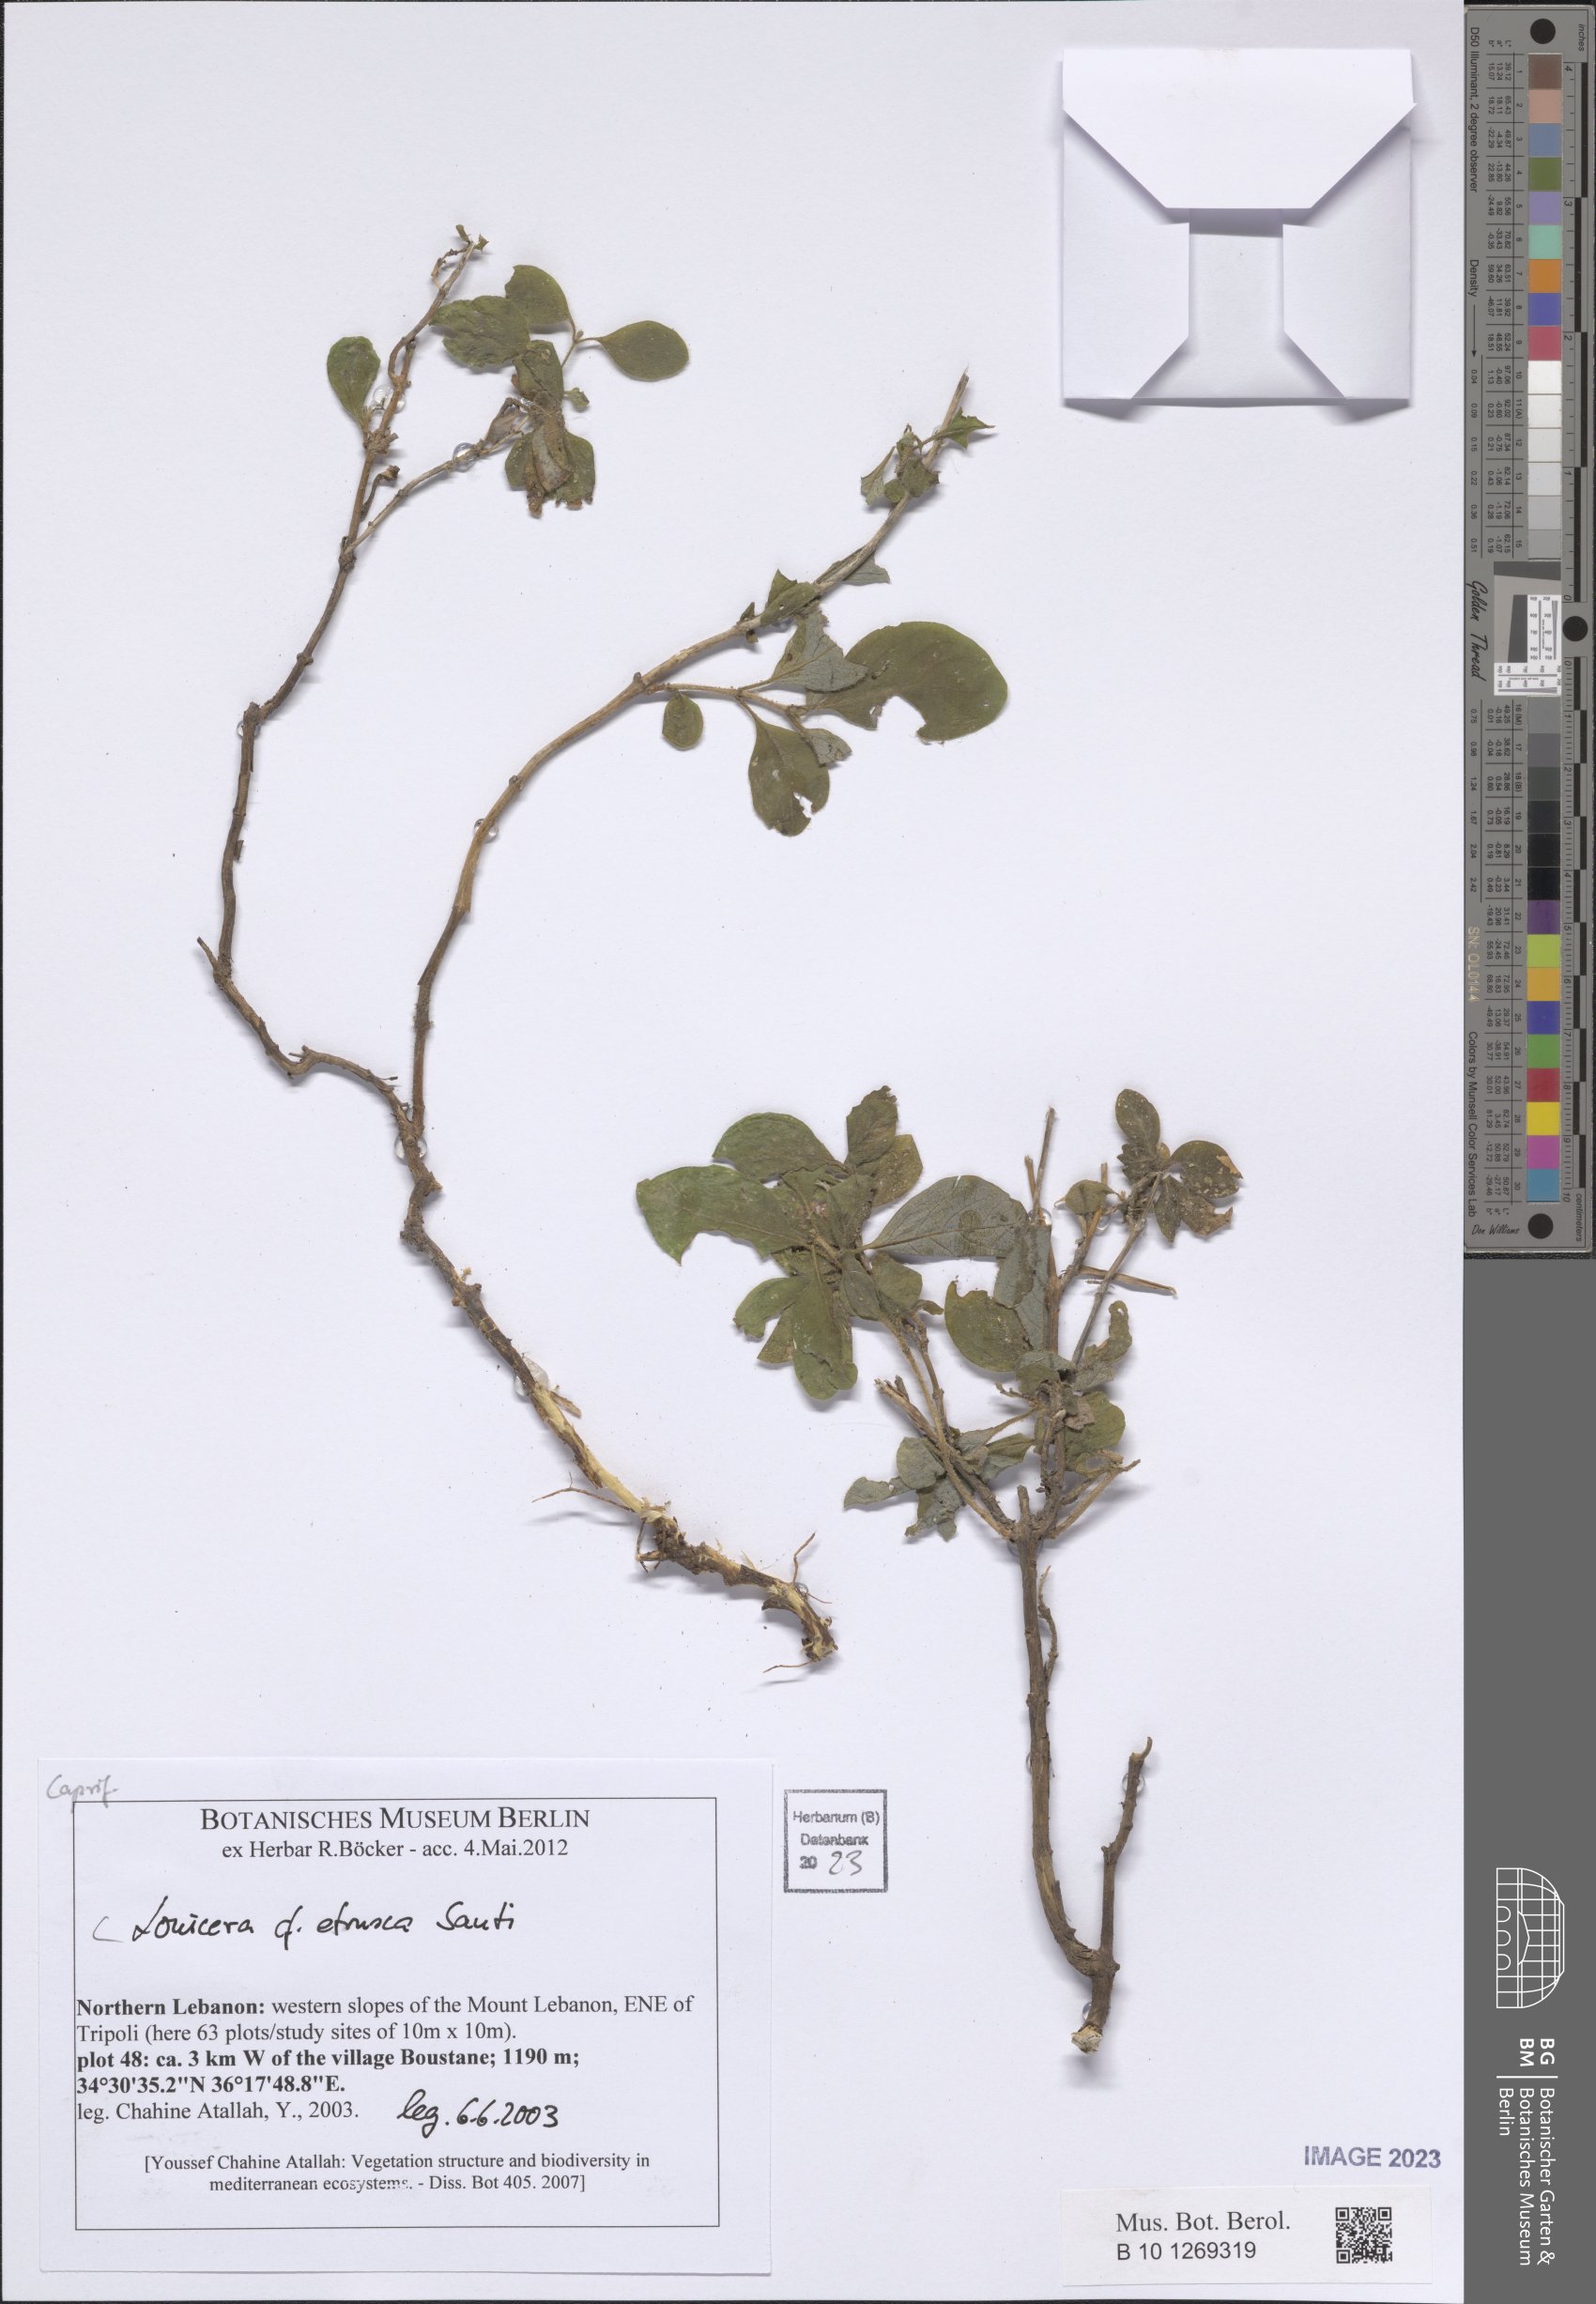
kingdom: Plantae
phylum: Tracheophyta
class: Magnoliopsida
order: Dipsacales
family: Caprifoliaceae
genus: Lonicera
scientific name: Lonicera etrusca
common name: Etruscan honeysuckle
